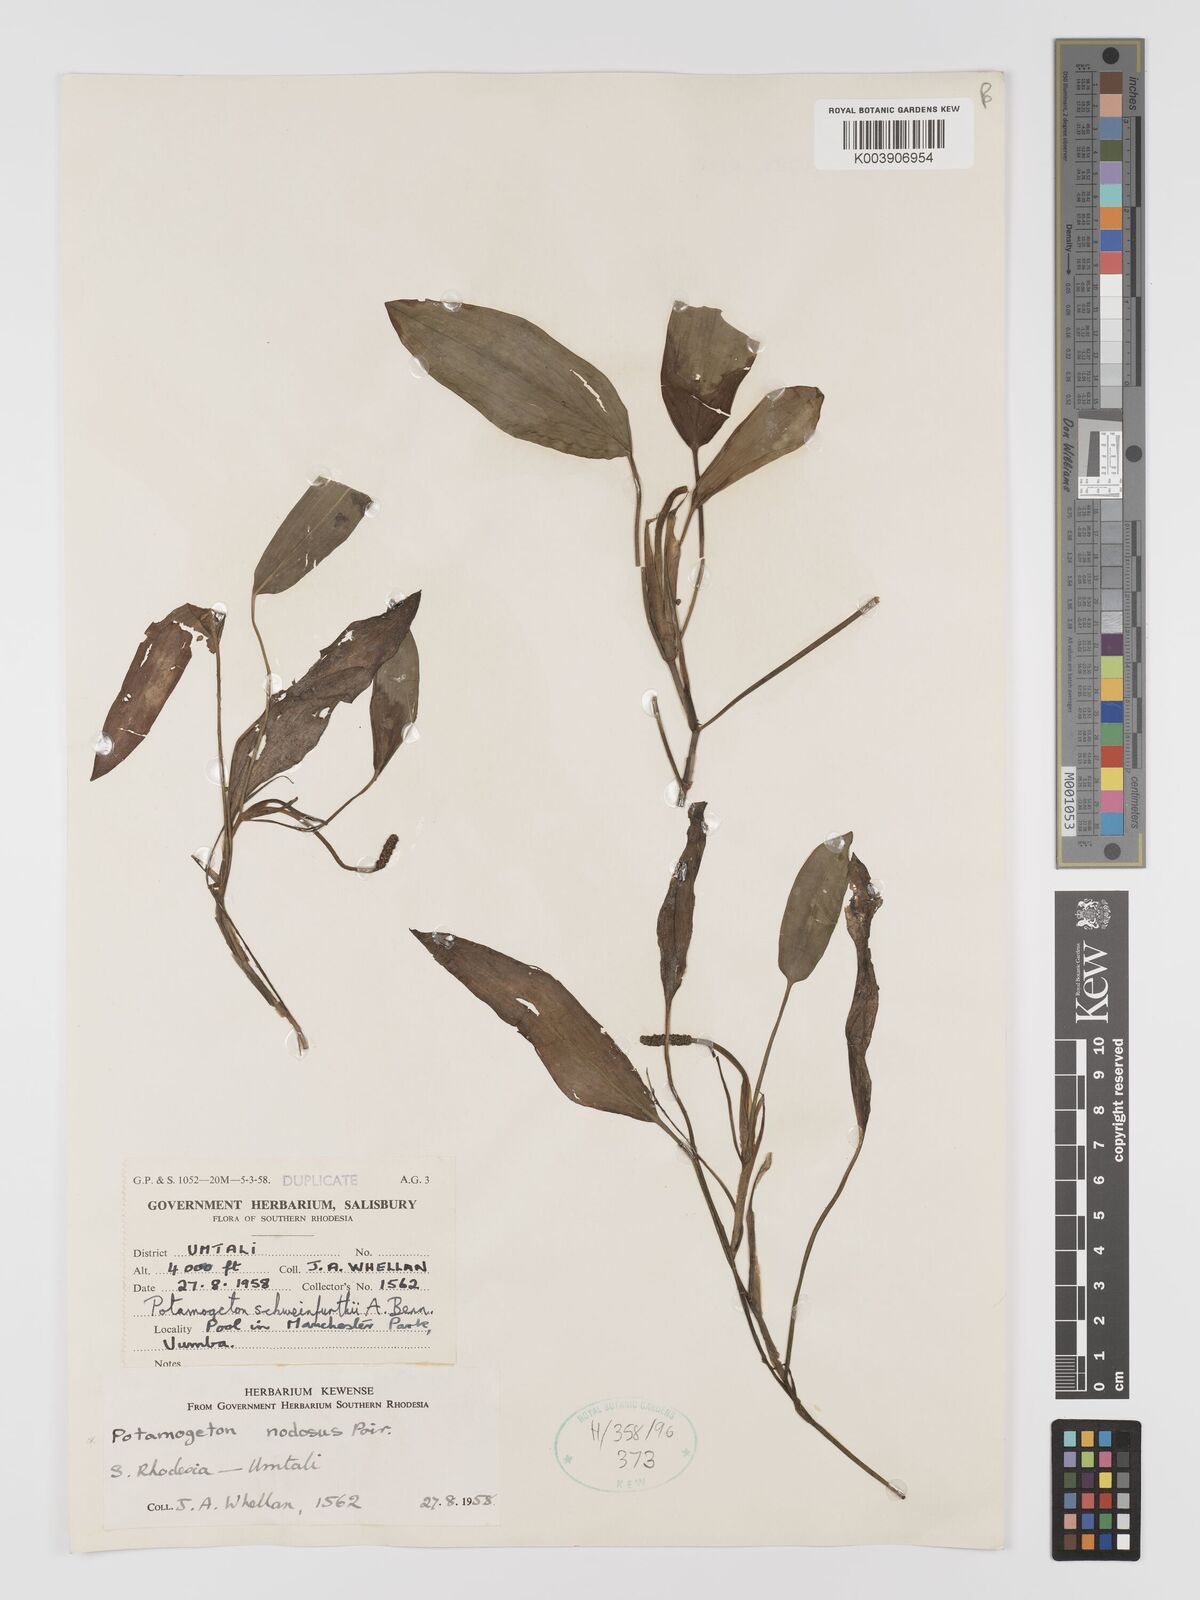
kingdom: Plantae
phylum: Tracheophyta
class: Liliopsida
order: Alismatales
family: Potamogetonaceae
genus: Potamogeton
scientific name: Potamogeton nodosus
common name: Loddon pondweed
